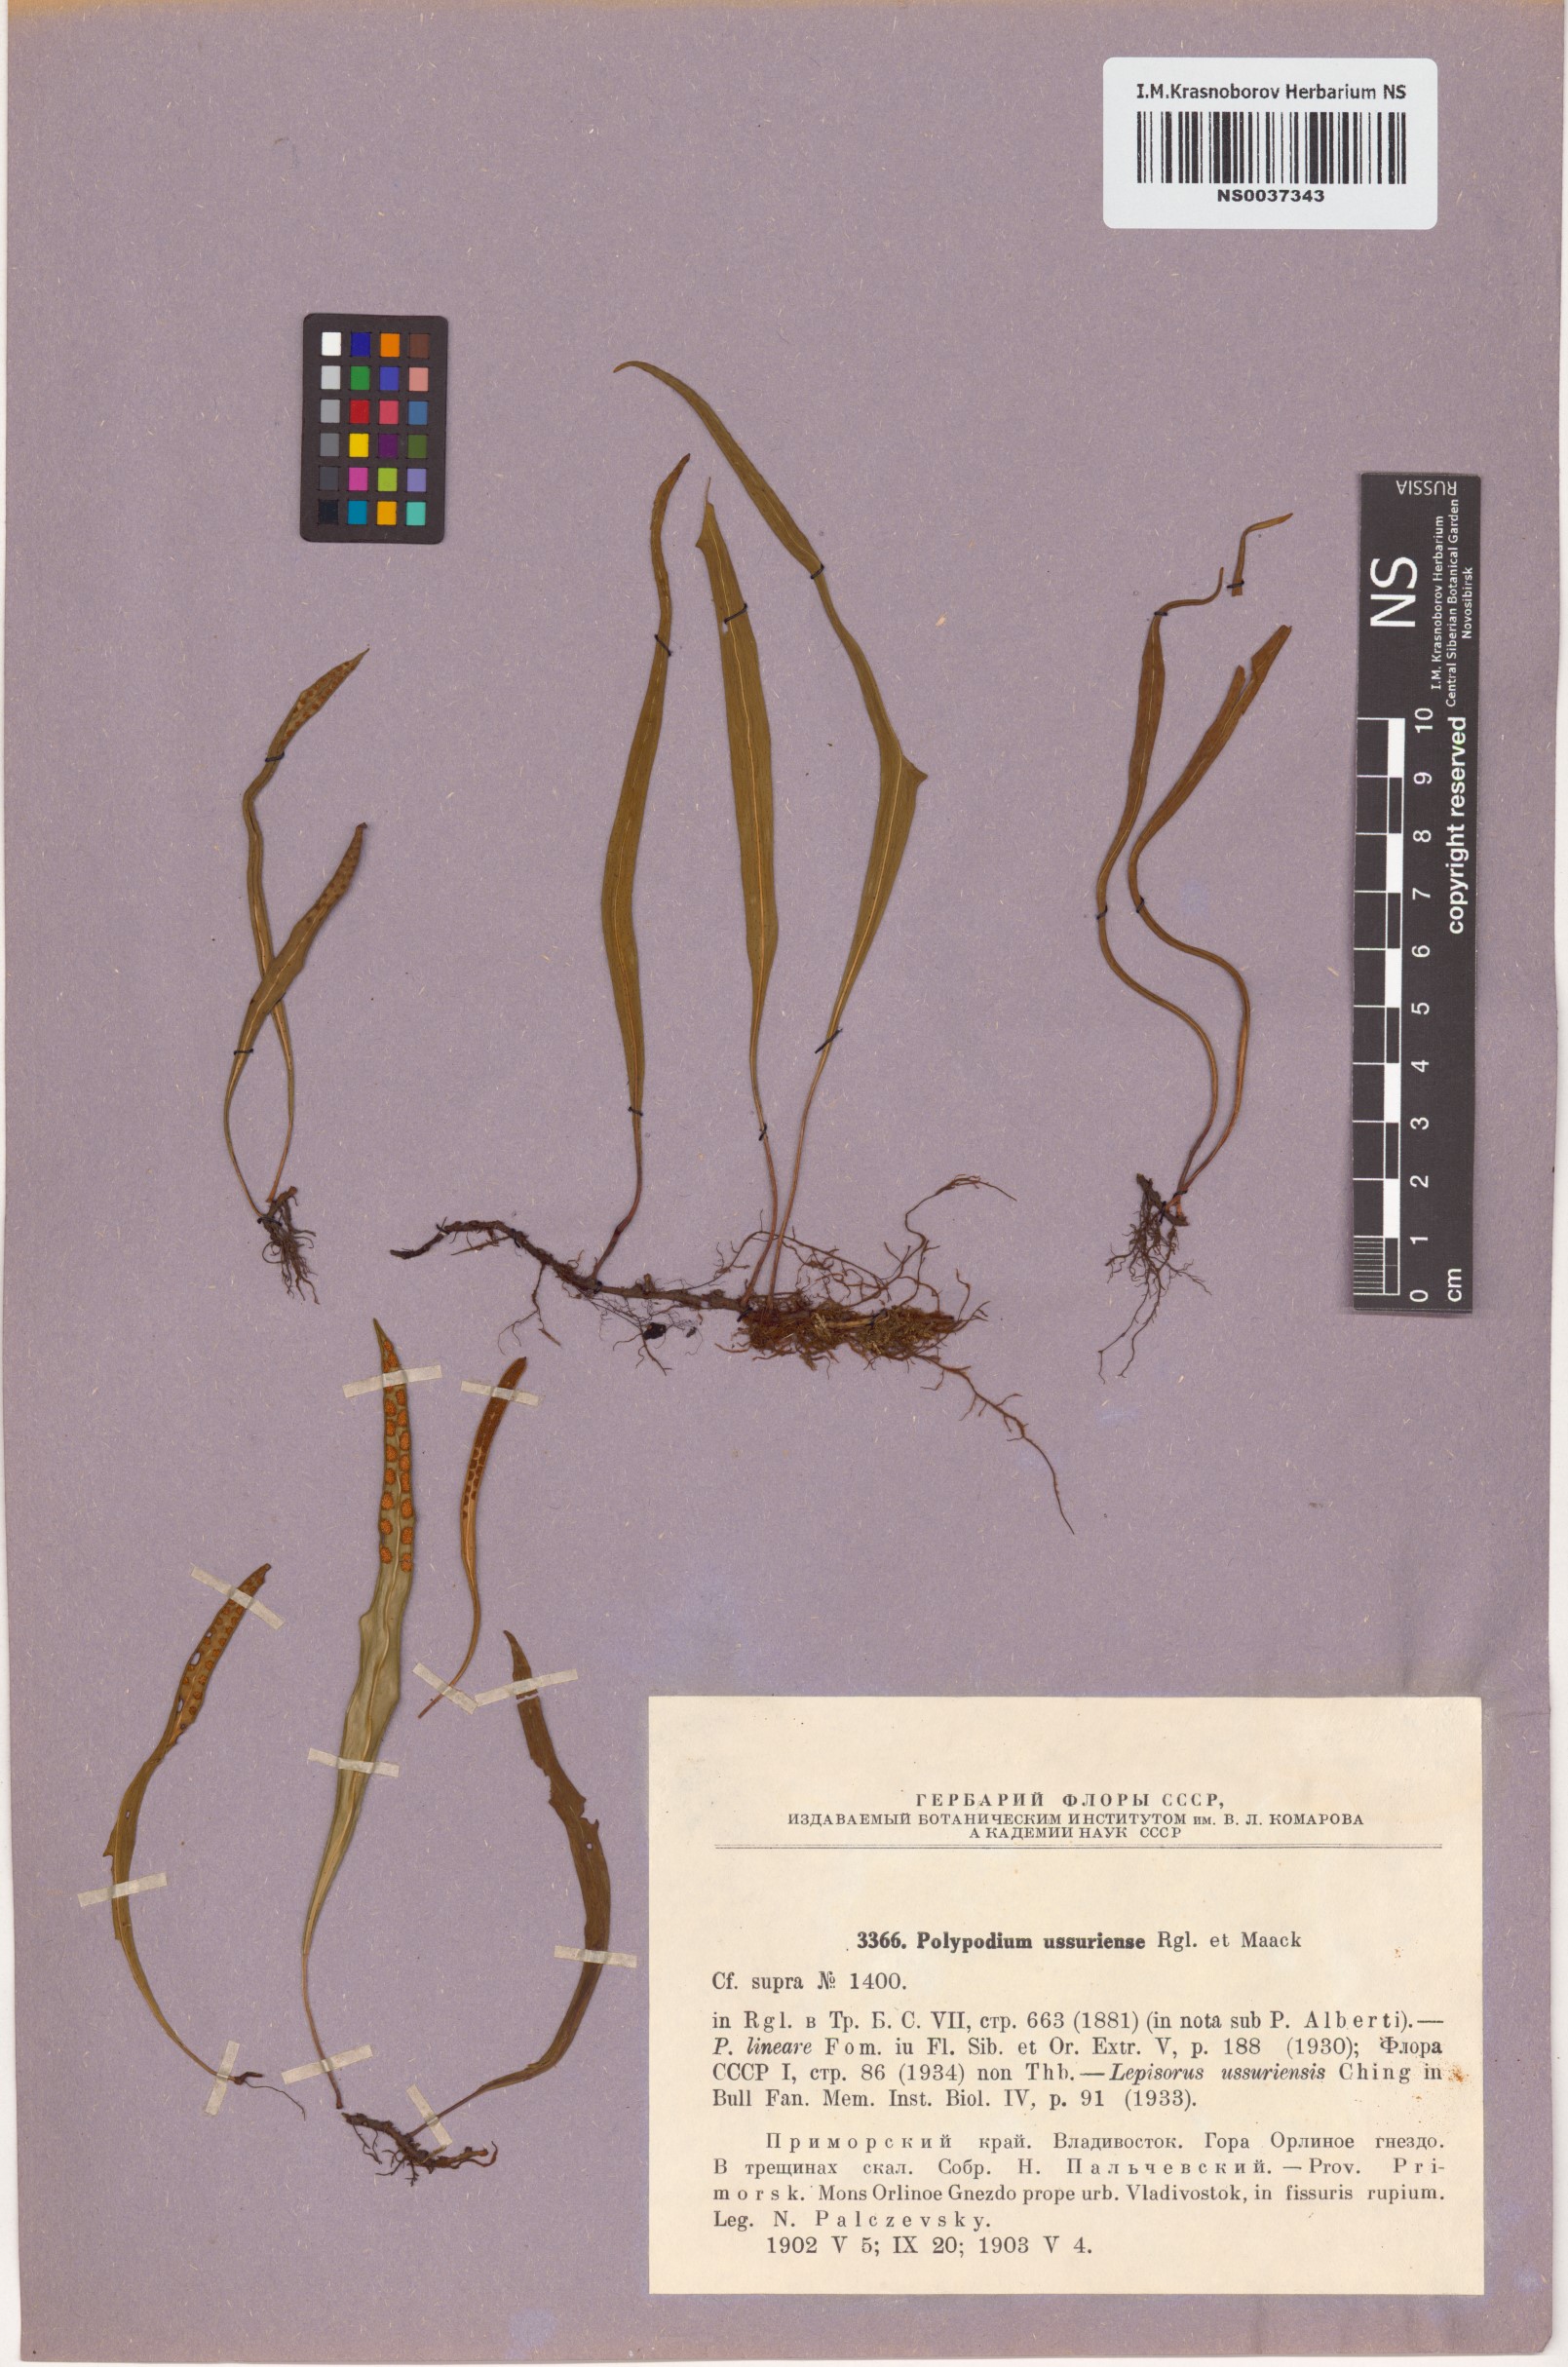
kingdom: Plantae
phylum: Tracheophyta
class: Polypodiopsida
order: Polypodiales
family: Polypodiaceae
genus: Lepisorus
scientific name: Lepisorus ussuriensis
